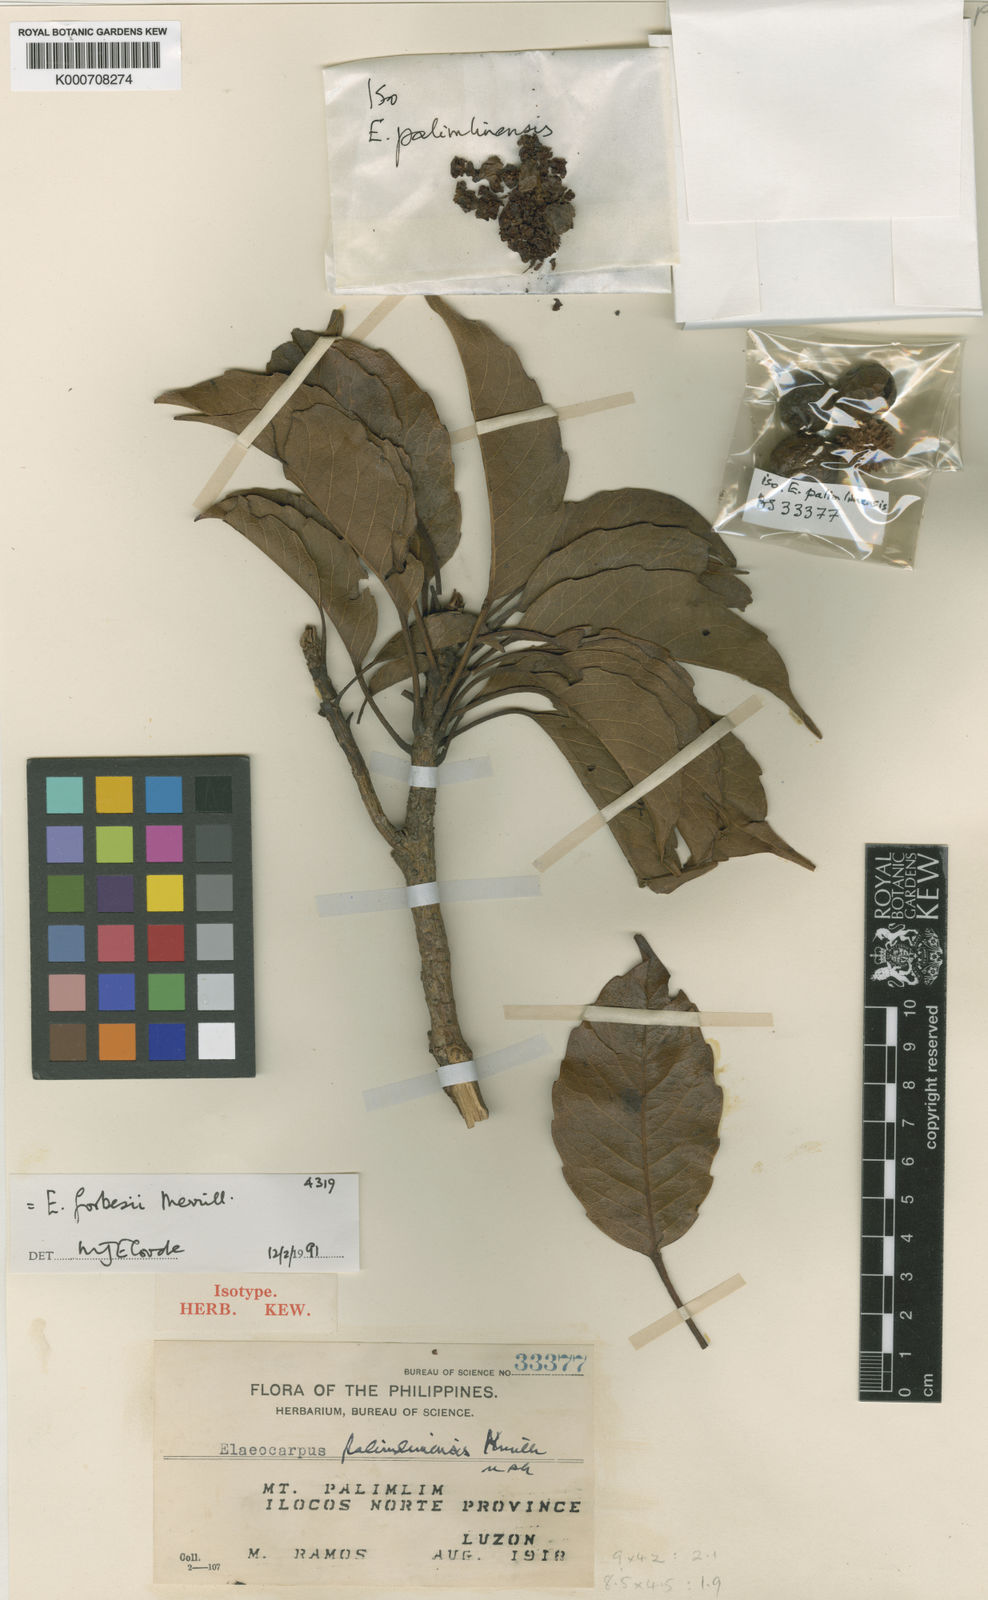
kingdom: Plantae
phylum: Tracheophyta
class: Magnoliopsida
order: Oxalidales
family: Elaeocarpaceae
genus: Elaeocarpus
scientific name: Elaeocarpus forbesii
